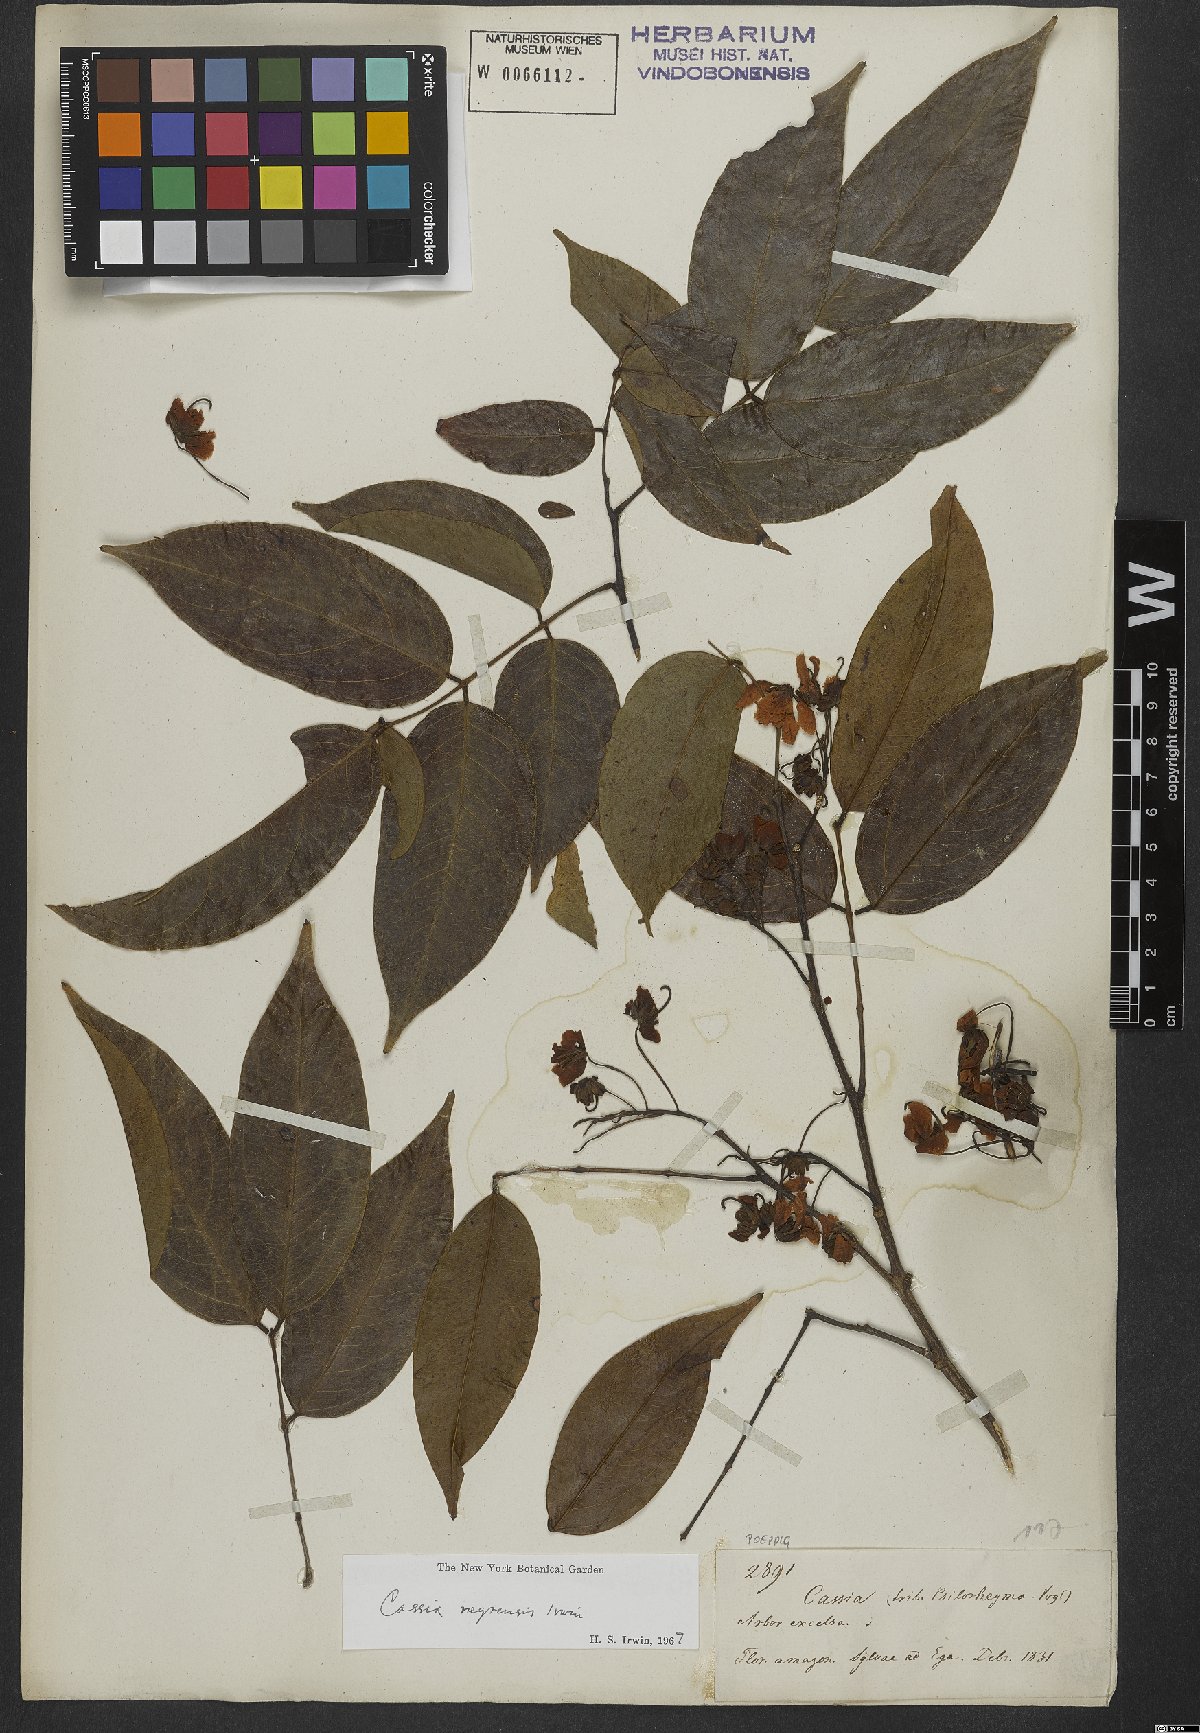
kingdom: Plantae
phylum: Tracheophyta
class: Magnoliopsida
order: Fabales
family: Fabaceae
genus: Chamaecrista
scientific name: Chamaecrista negrensis
